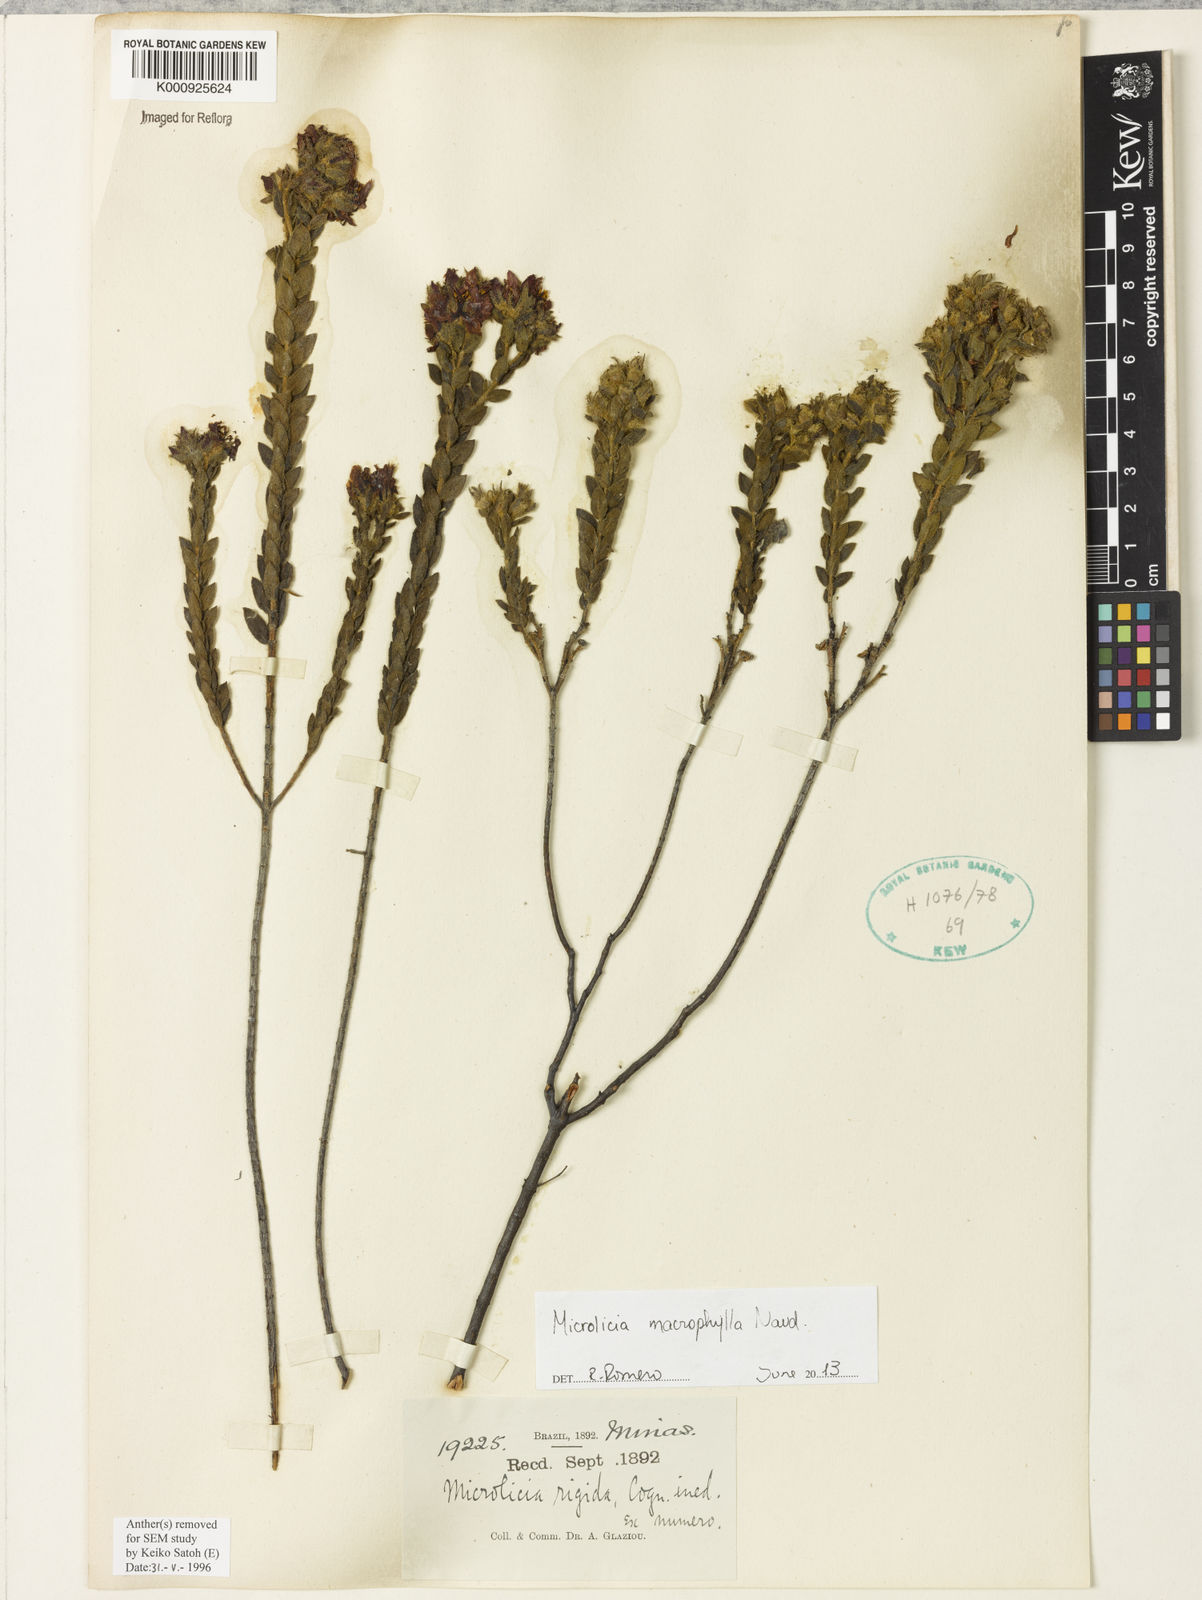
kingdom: Plantae
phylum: Tracheophyta
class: Magnoliopsida
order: Myrtales
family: Melastomataceae
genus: Microlicia
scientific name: Microlicia macrophylla
